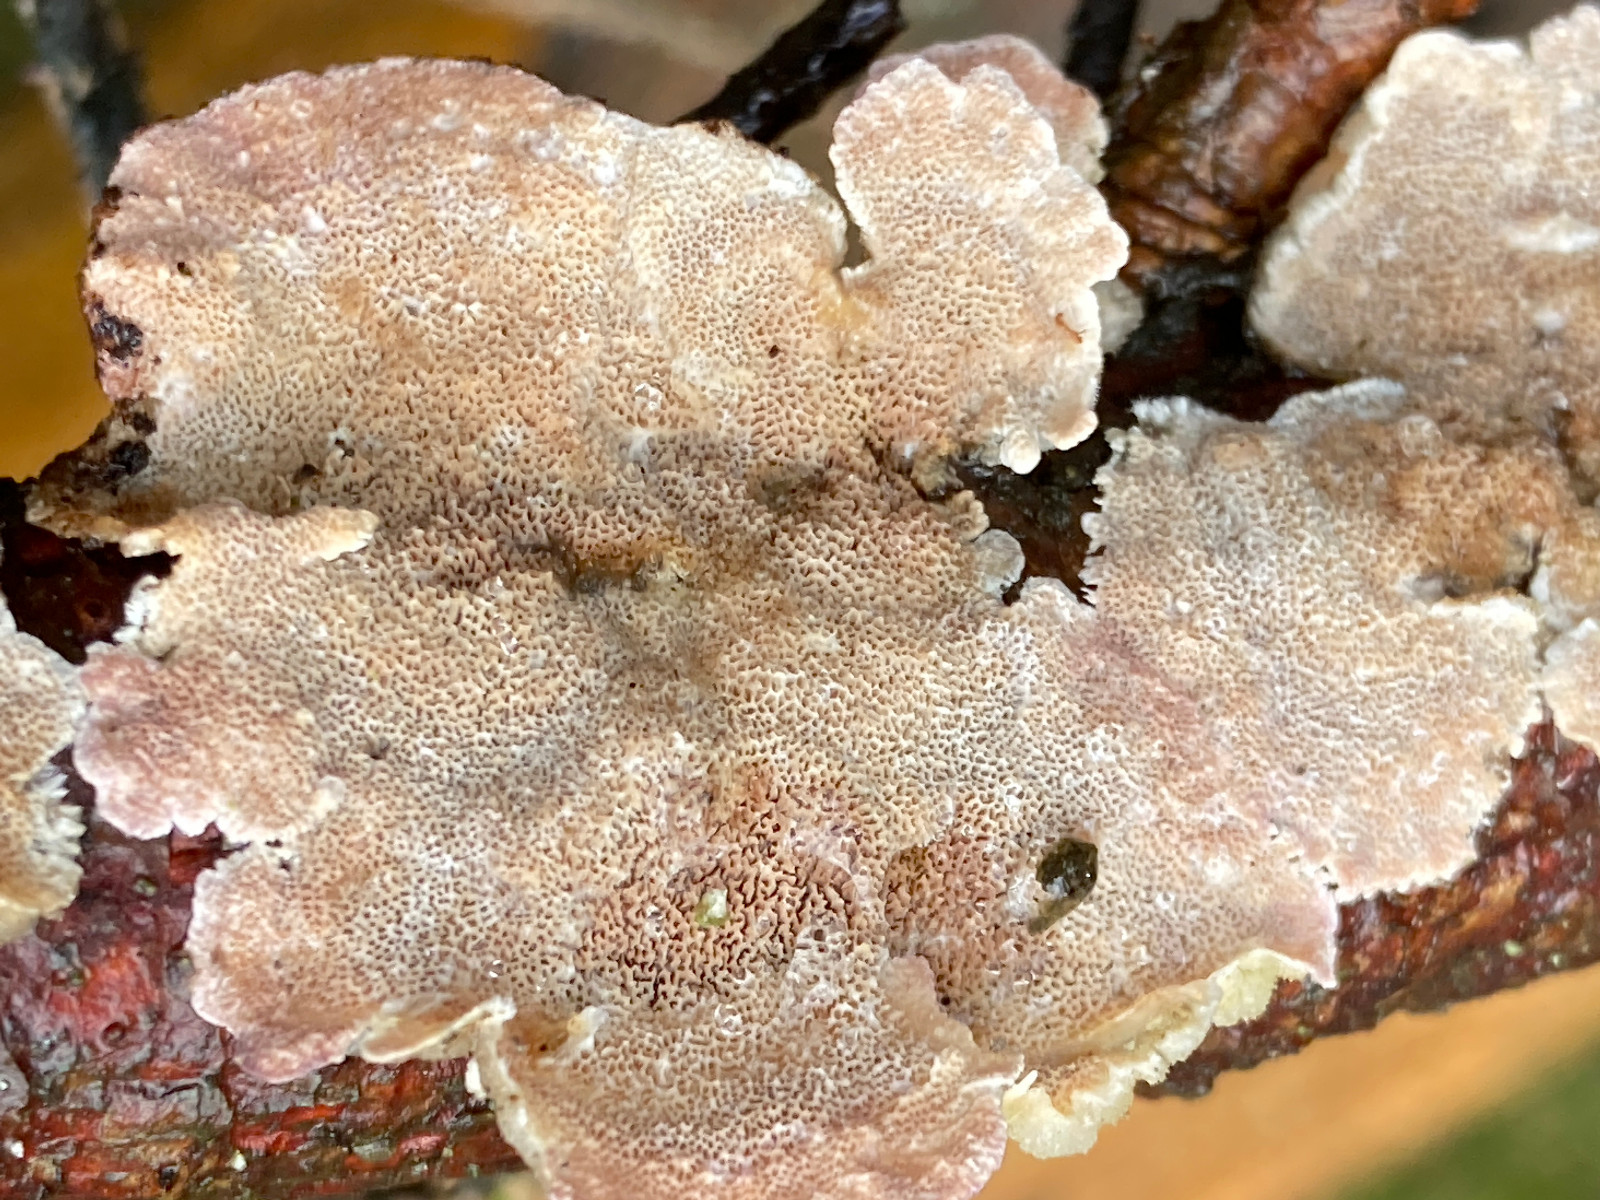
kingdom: Fungi
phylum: Basidiomycota
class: Agaricomycetes
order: Hymenochaetales
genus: Trichaptum
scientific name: Trichaptum abietinum
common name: almindelig violporesvamp
